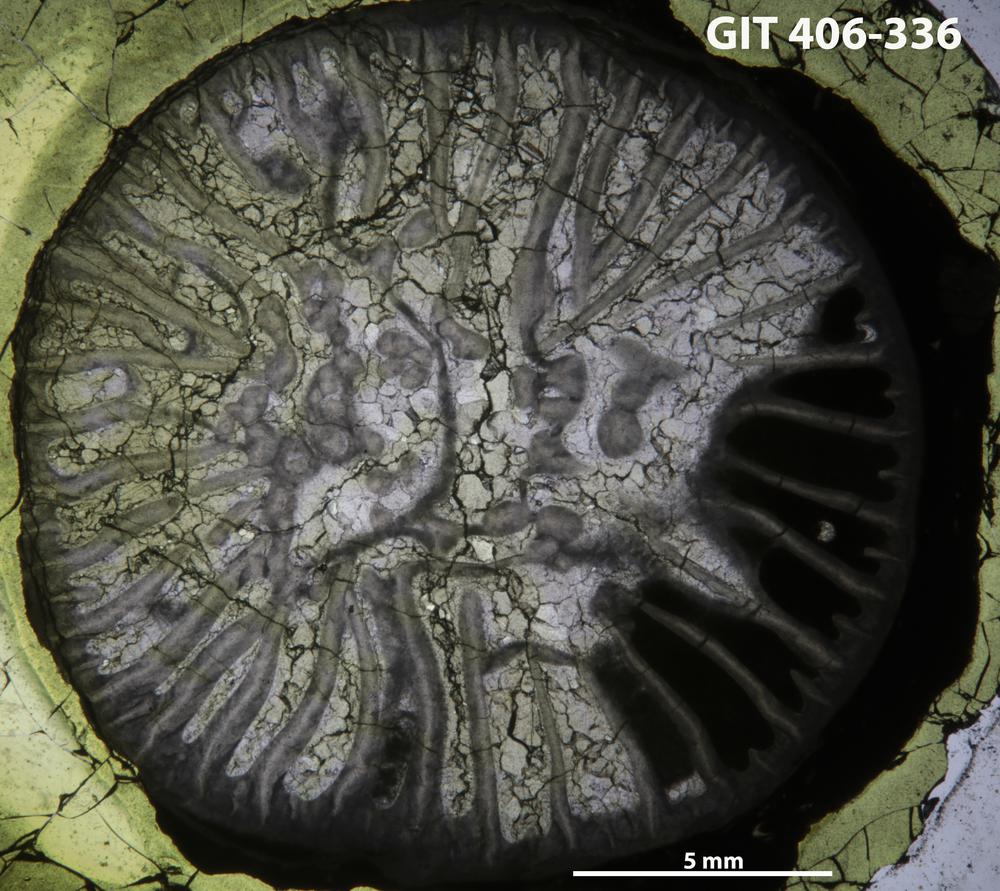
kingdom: Animalia
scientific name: Animalia
